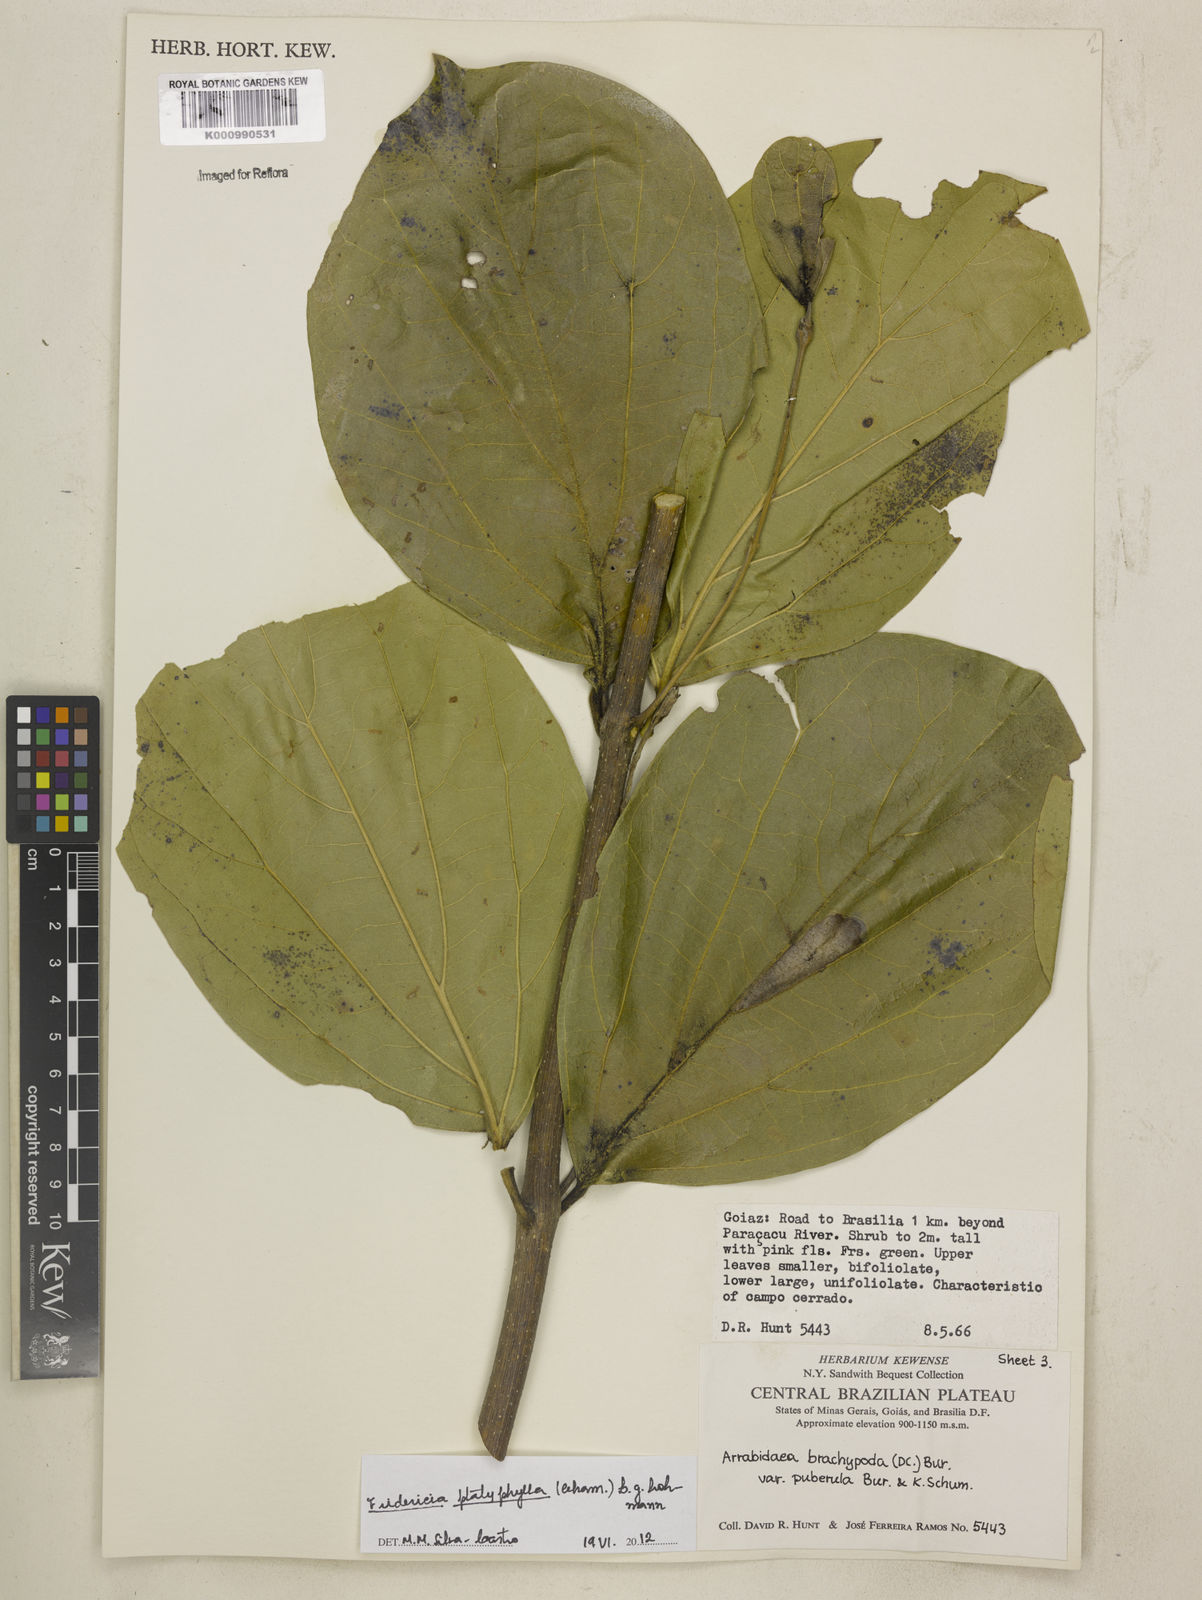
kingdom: Plantae
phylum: Tracheophyta
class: Magnoliopsida
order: Lamiales
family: Bignoniaceae
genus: Fridericia
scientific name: Fridericia platyphylla
